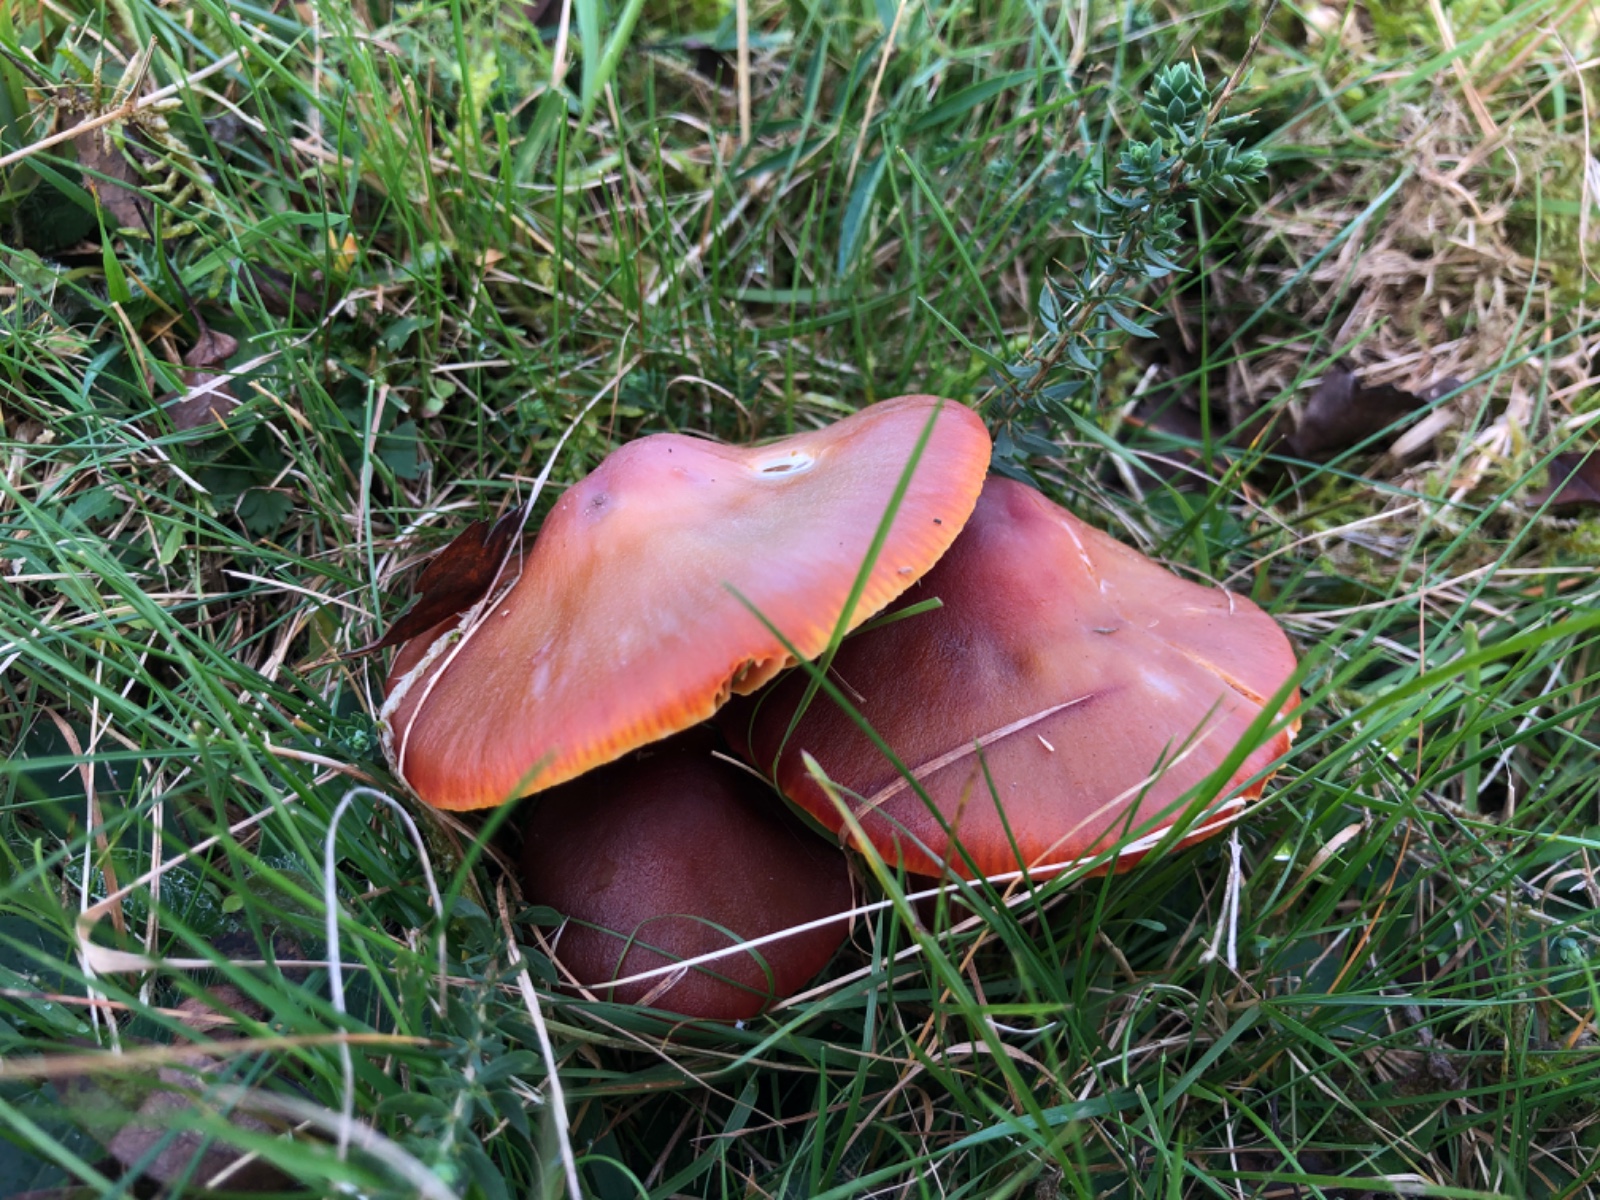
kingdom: Fungi
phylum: Basidiomycota
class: Agaricomycetes
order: Agaricales
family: Hygrophoraceae
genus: Hygrocybe
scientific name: Hygrocybe punicea
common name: skarlagen-vokshat
